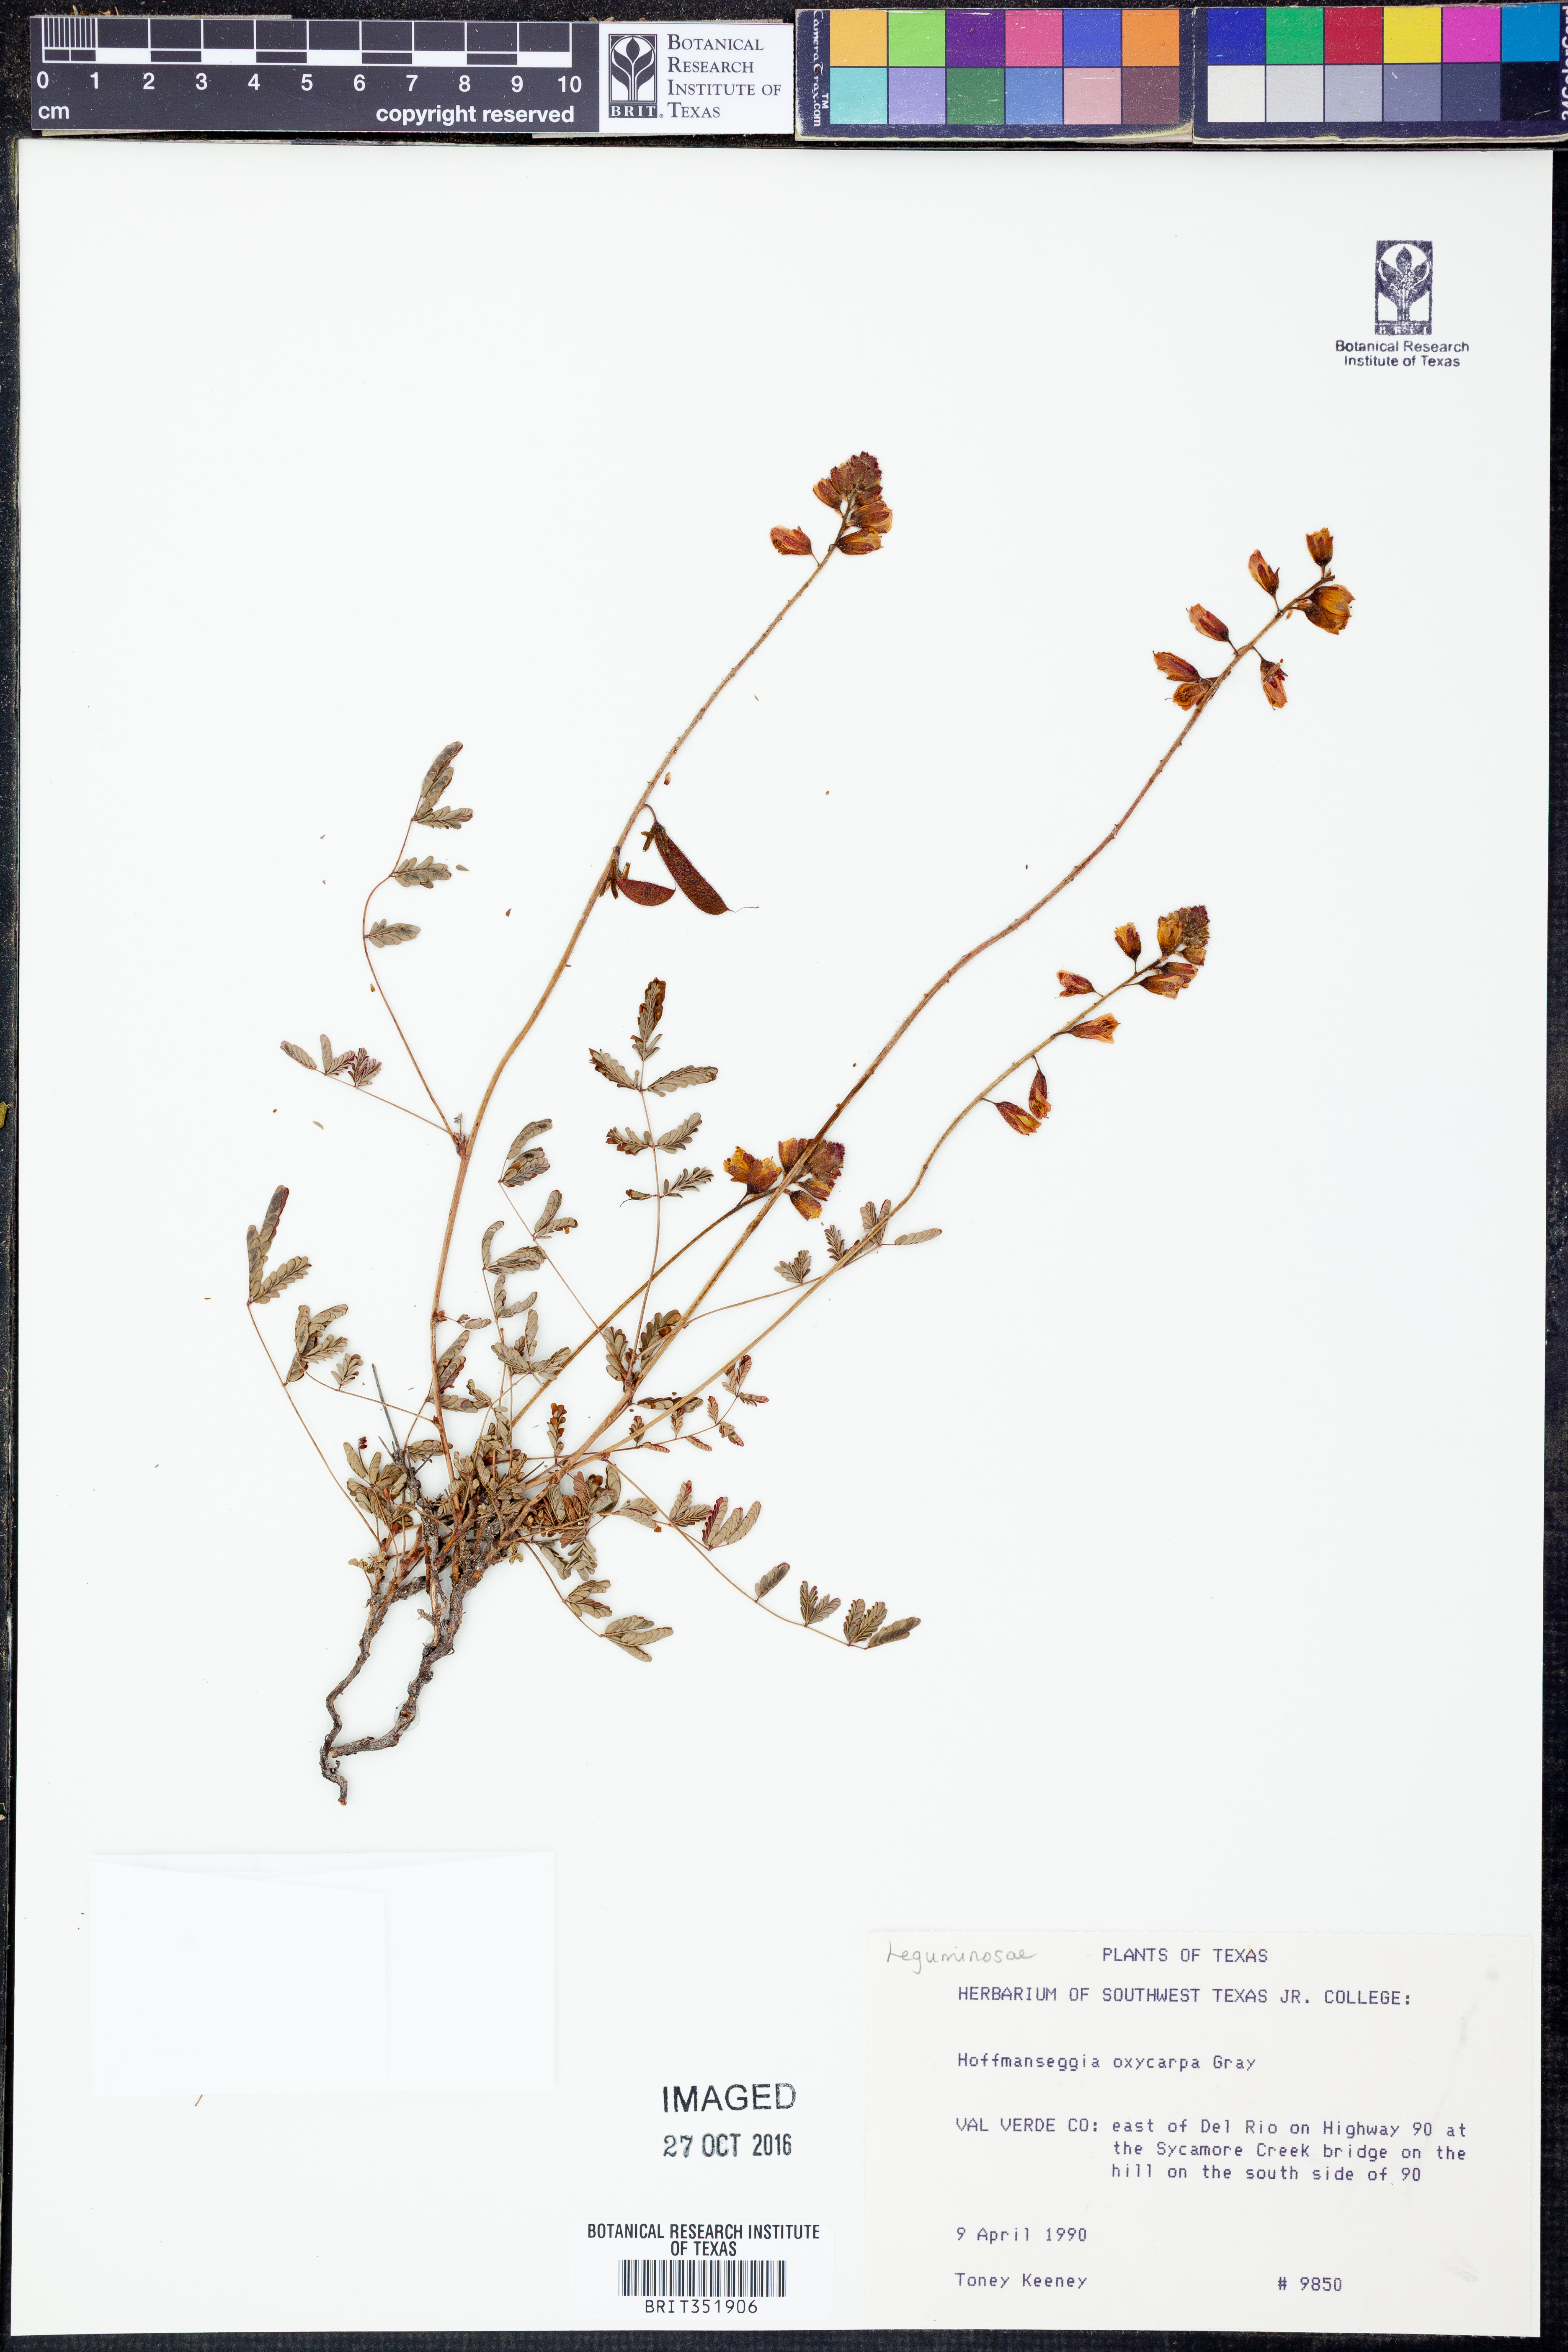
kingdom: Plantae
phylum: Tracheophyta
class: Magnoliopsida
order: Fabales
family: Fabaceae
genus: Hoffmannseggia
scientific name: Hoffmannseggia oxycarpa
